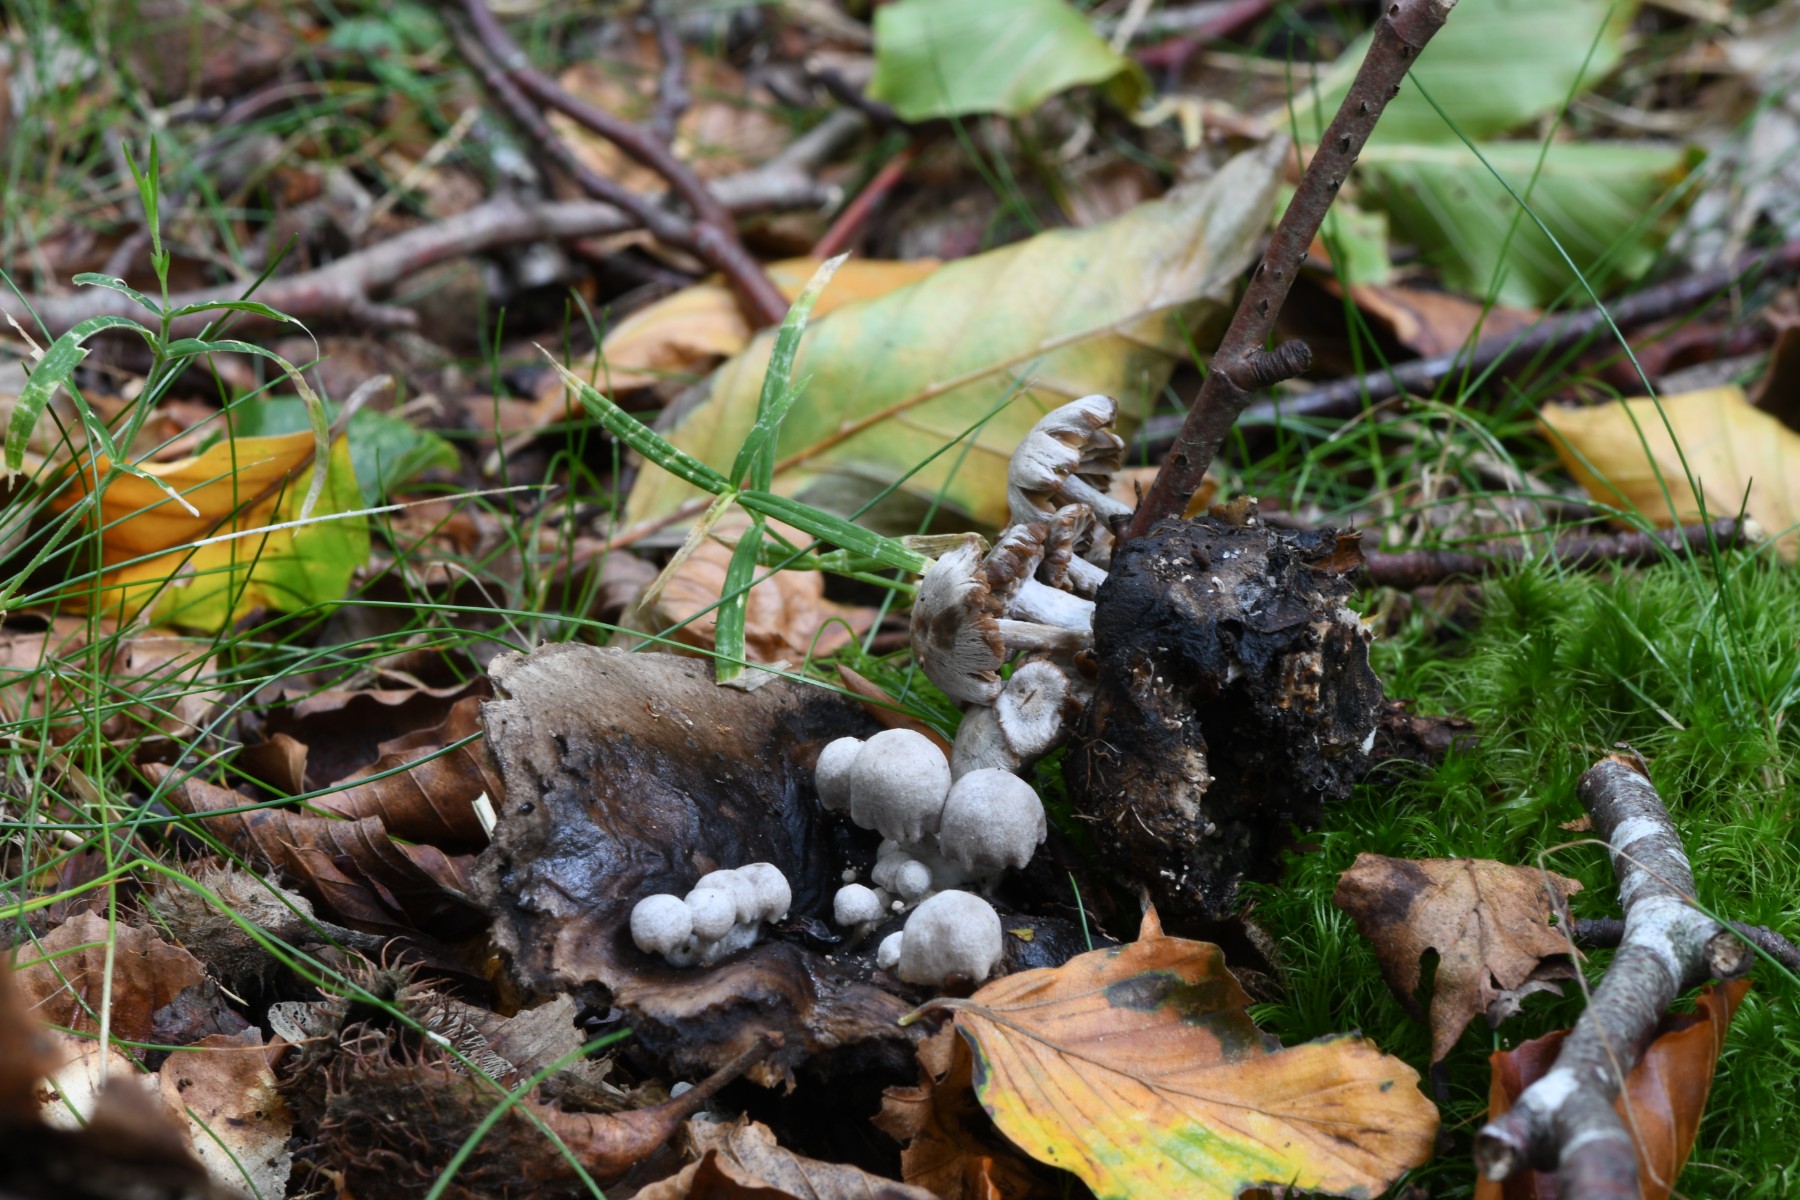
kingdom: Fungi
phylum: Basidiomycota
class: Agaricomycetes
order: Agaricales
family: Lyophyllaceae
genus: Asterophora
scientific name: Asterophora parasitica
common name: grå snyltehat
